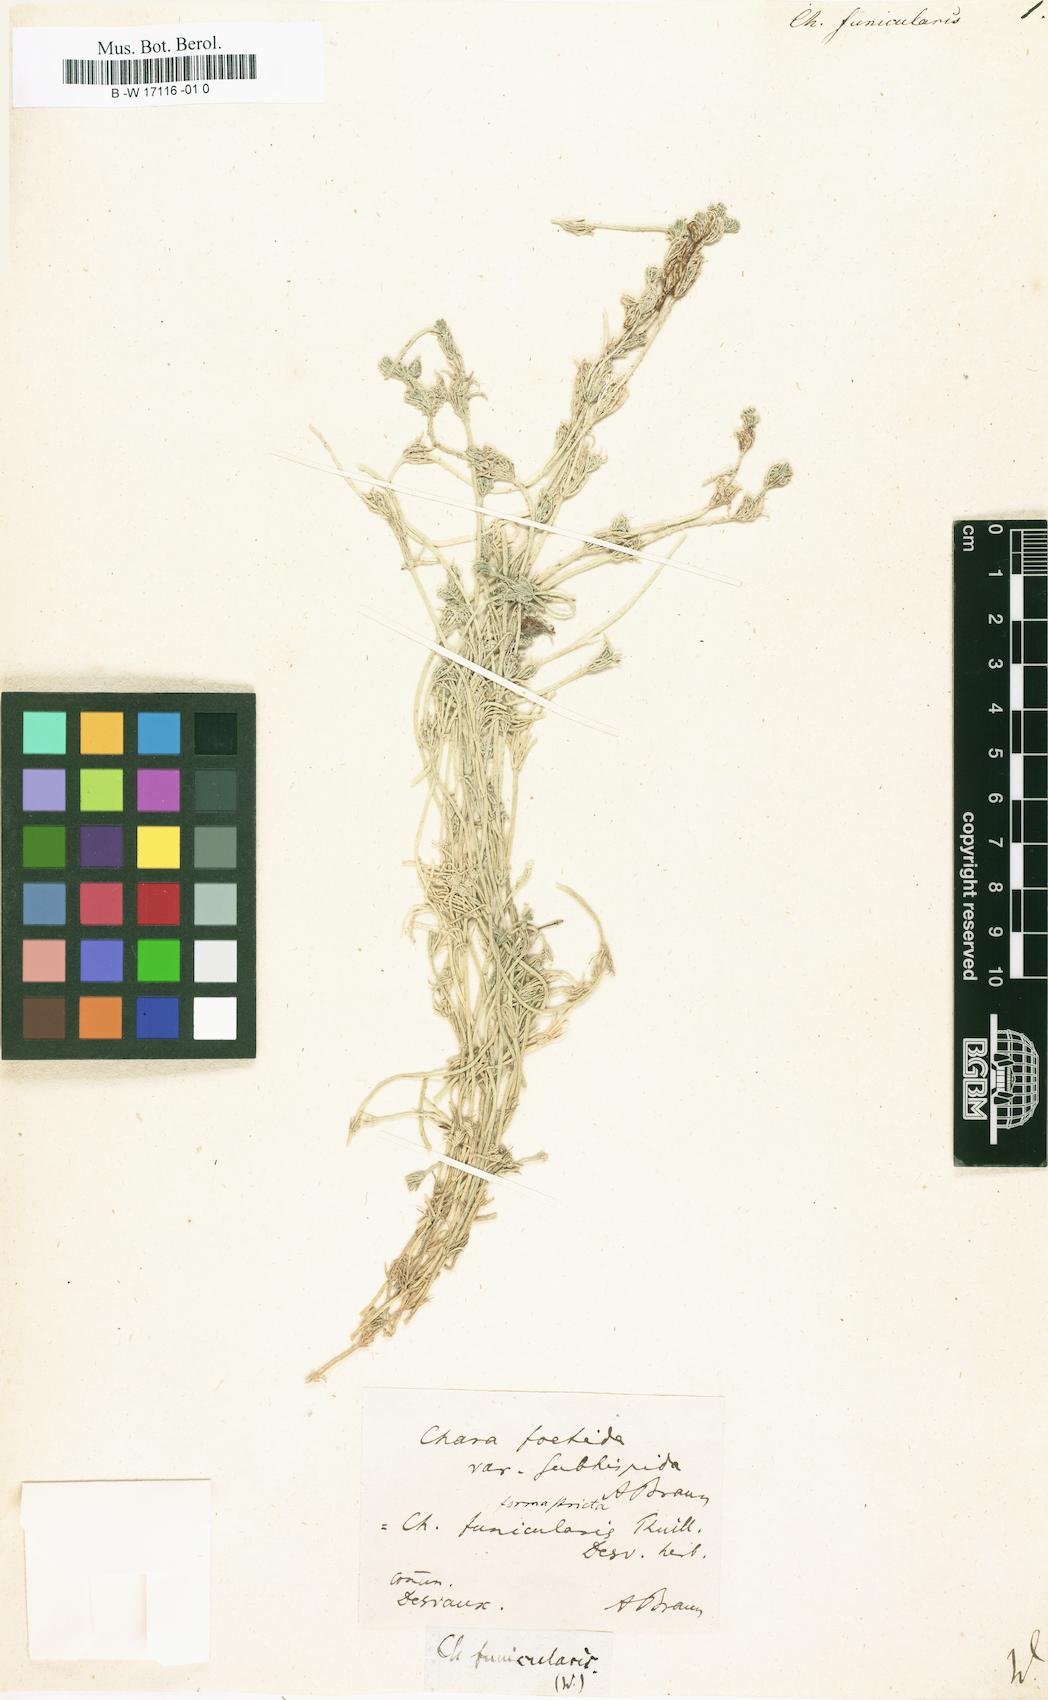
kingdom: Plantae
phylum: Charophyta
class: Charophyceae
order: Charales
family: Characeae
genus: Chara
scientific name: Chara
